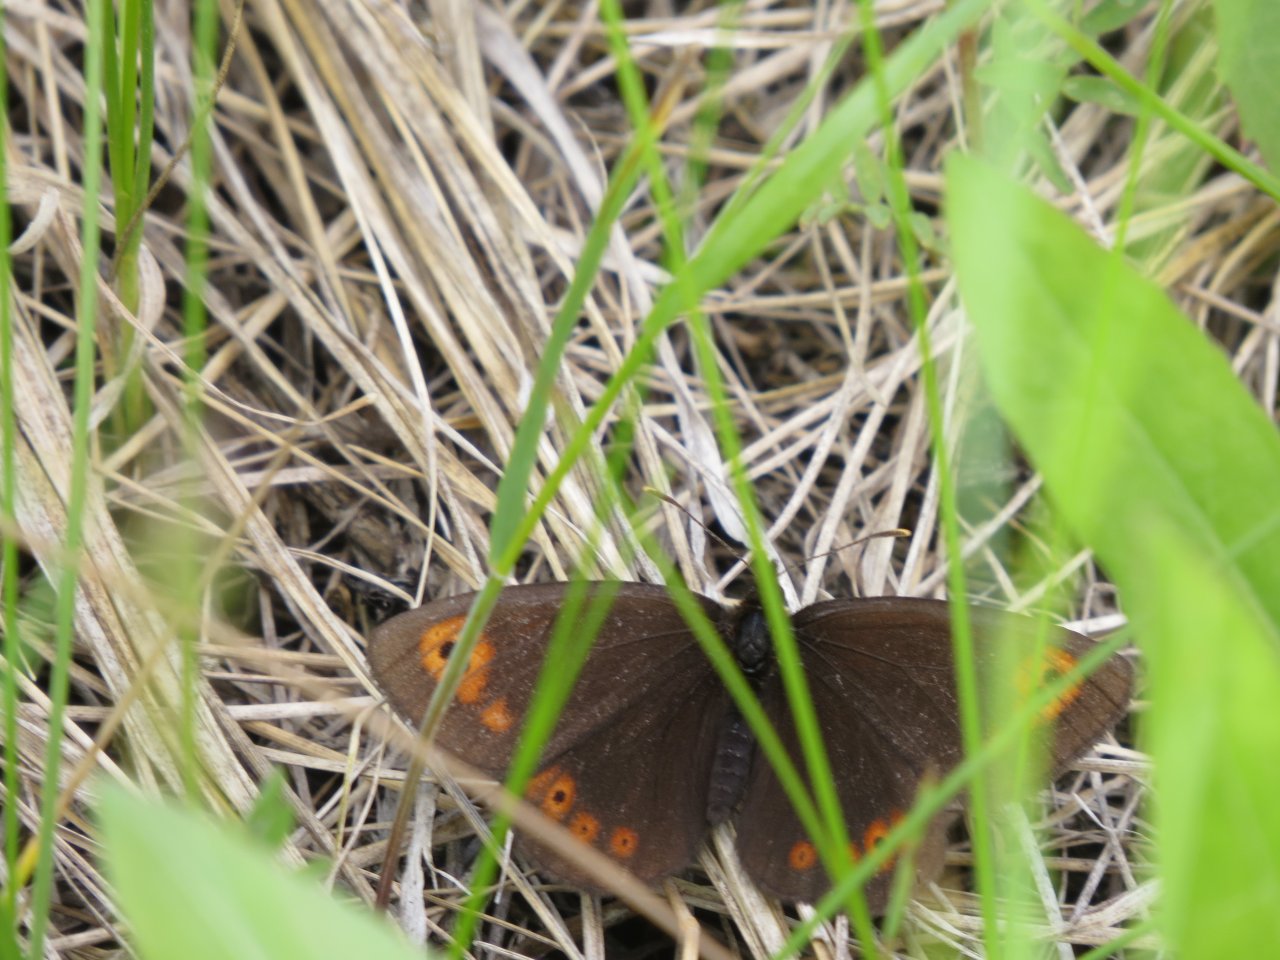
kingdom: Animalia
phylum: Arthropoda
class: Insecta
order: Lepidoptera
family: Nymphalidae
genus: Erebia
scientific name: Erebia epipsodea
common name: Common Alpine
